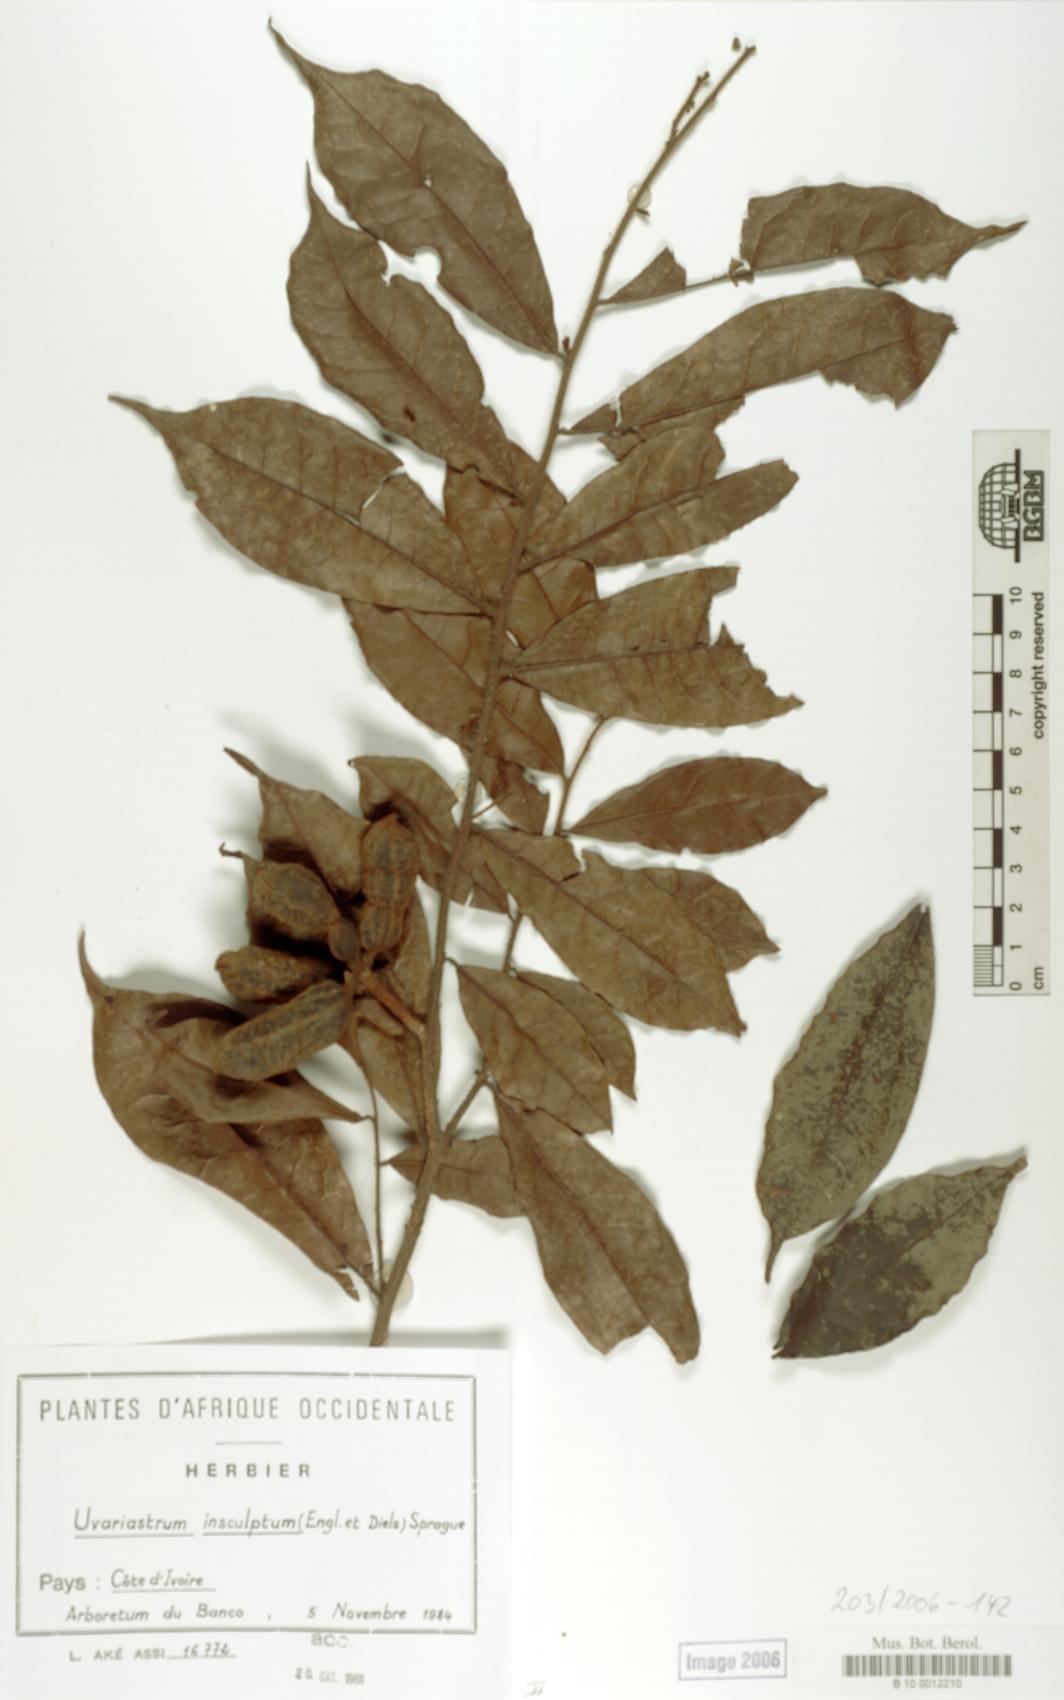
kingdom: Plantae
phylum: Tracheophyta
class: Magnoliopsida
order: Magnoliales
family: Annonaceae
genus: Uvariastrum
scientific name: Uvariastrum pierreanum
